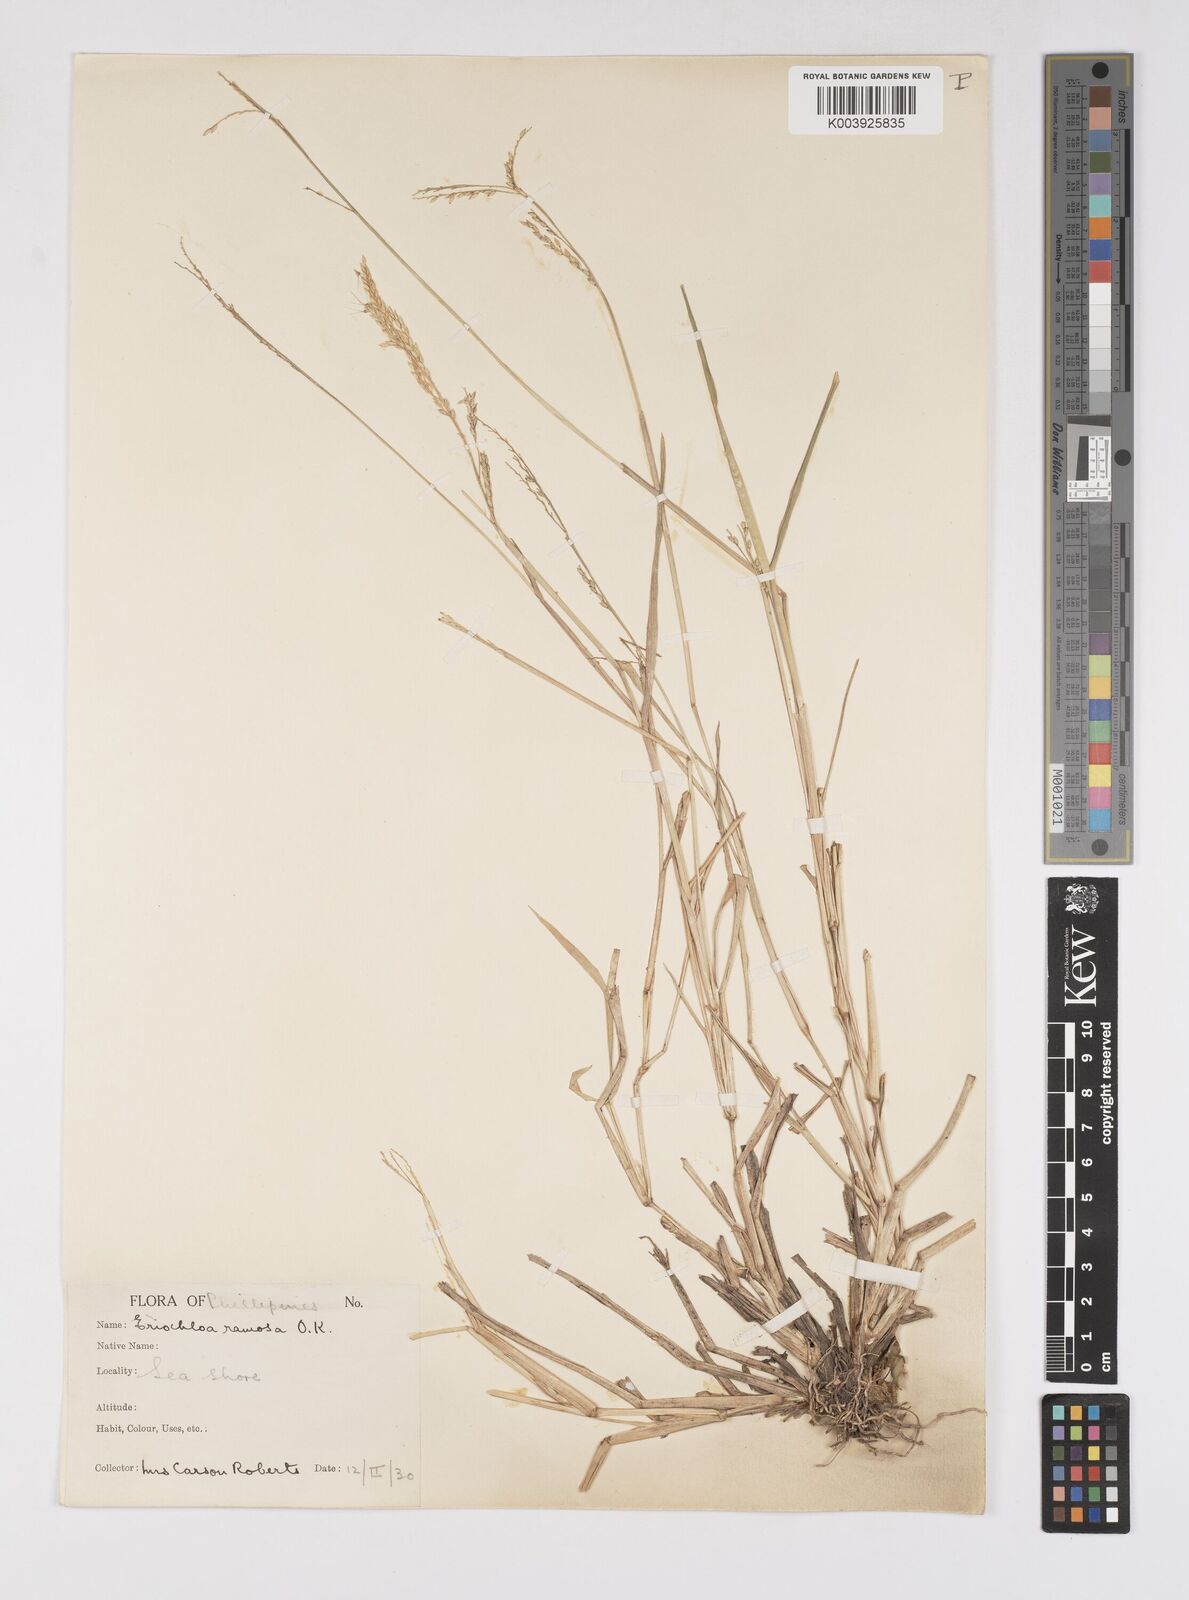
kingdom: Plantae
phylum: Tracheophyta
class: Liliopsida
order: Poales
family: Poaceae
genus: Eriochloa
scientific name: Eriochloa procera
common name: Spring grass
